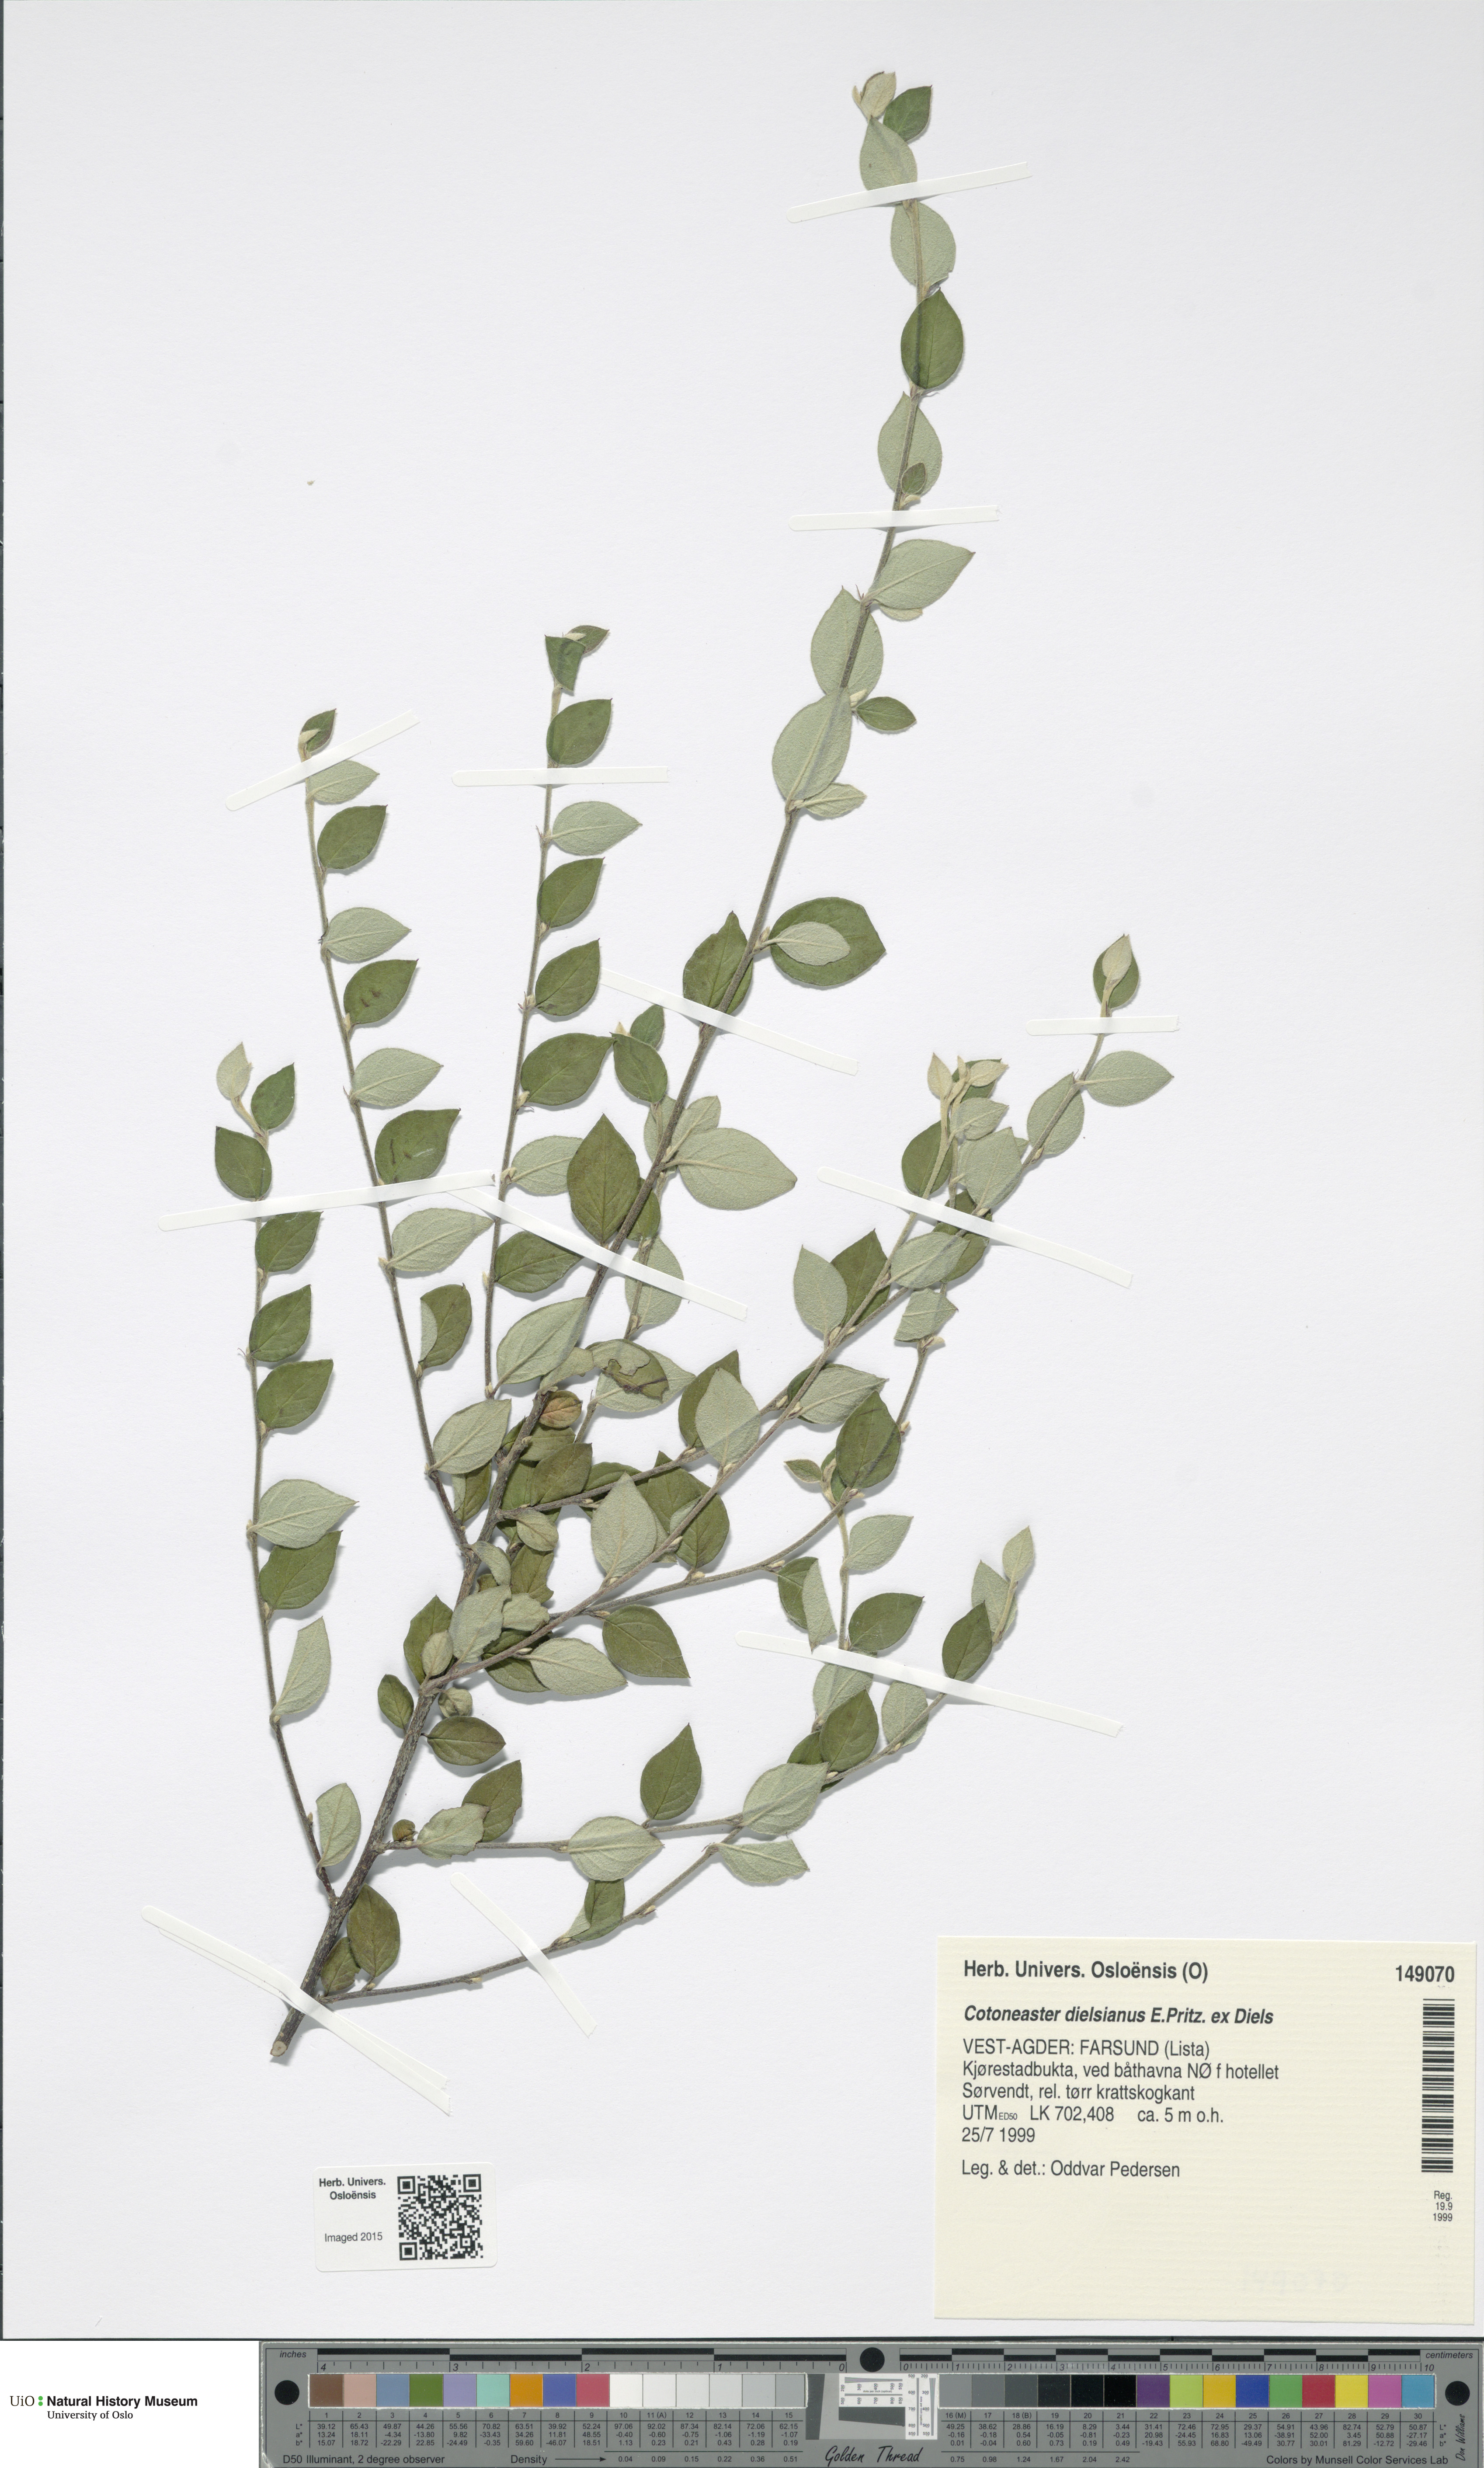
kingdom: Plantae
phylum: Tracheophyta
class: Magnoliopsida
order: Rosales
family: Rosaceae
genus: Cotoneaster
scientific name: Cotoneaster dielsianus
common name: Diels's cotoneaster
